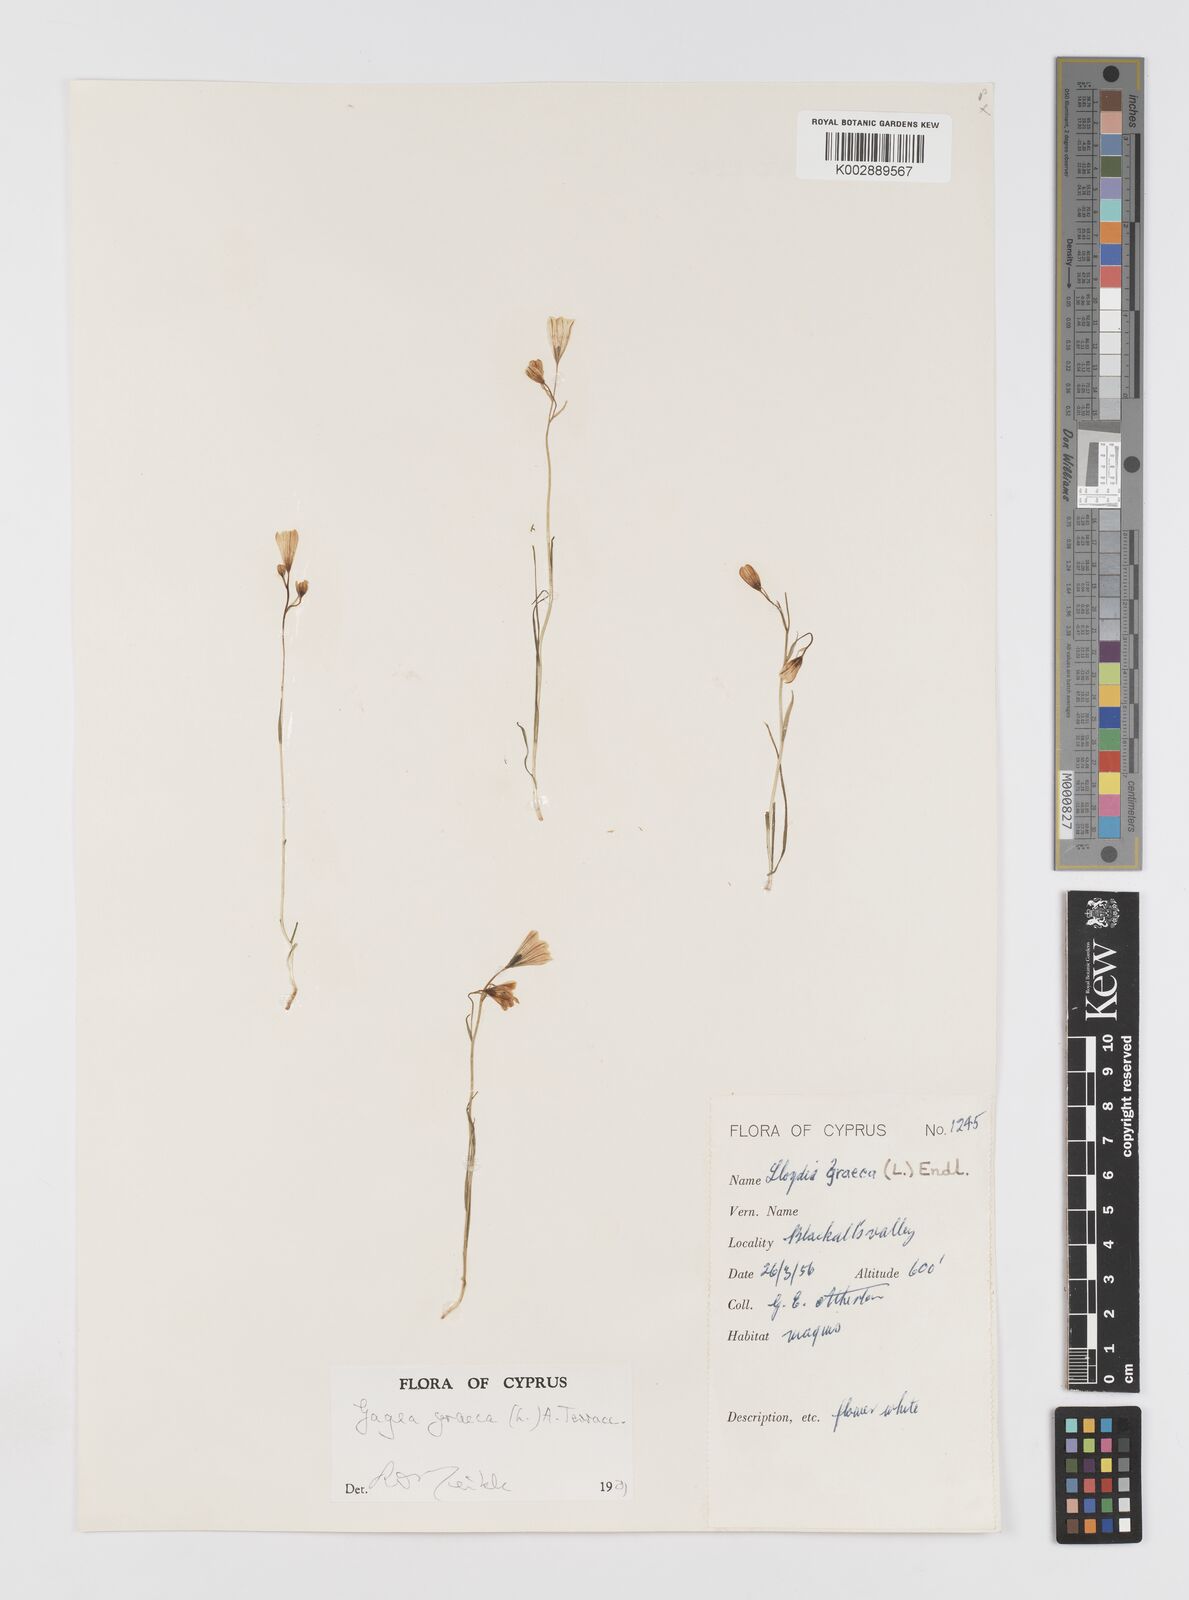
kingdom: Plantae
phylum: Tracheophyta
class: Liliopsida
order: Liliales
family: Liliaceae
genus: Gagea
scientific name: Gagea graeca
